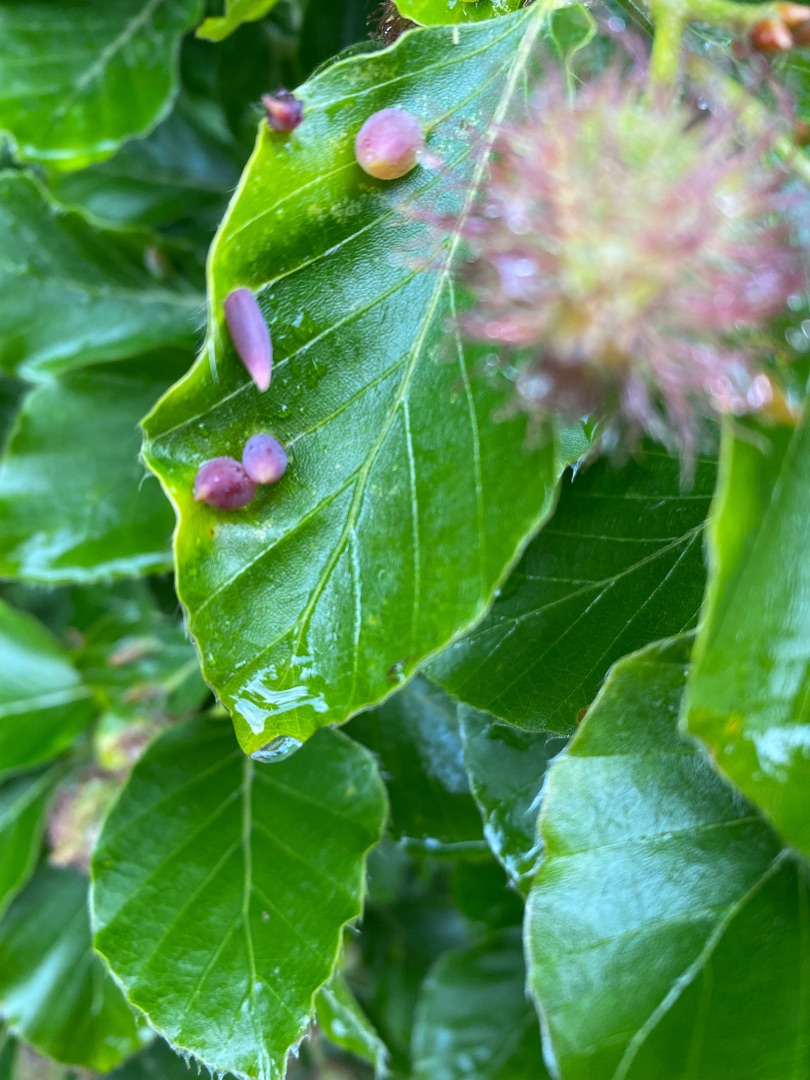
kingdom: Animalia
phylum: Arthropoda
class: Insecta
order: Diptera
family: Cecidomyiidae
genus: Mikiola
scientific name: Mikiola fagi
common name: Bøgegalmyg
